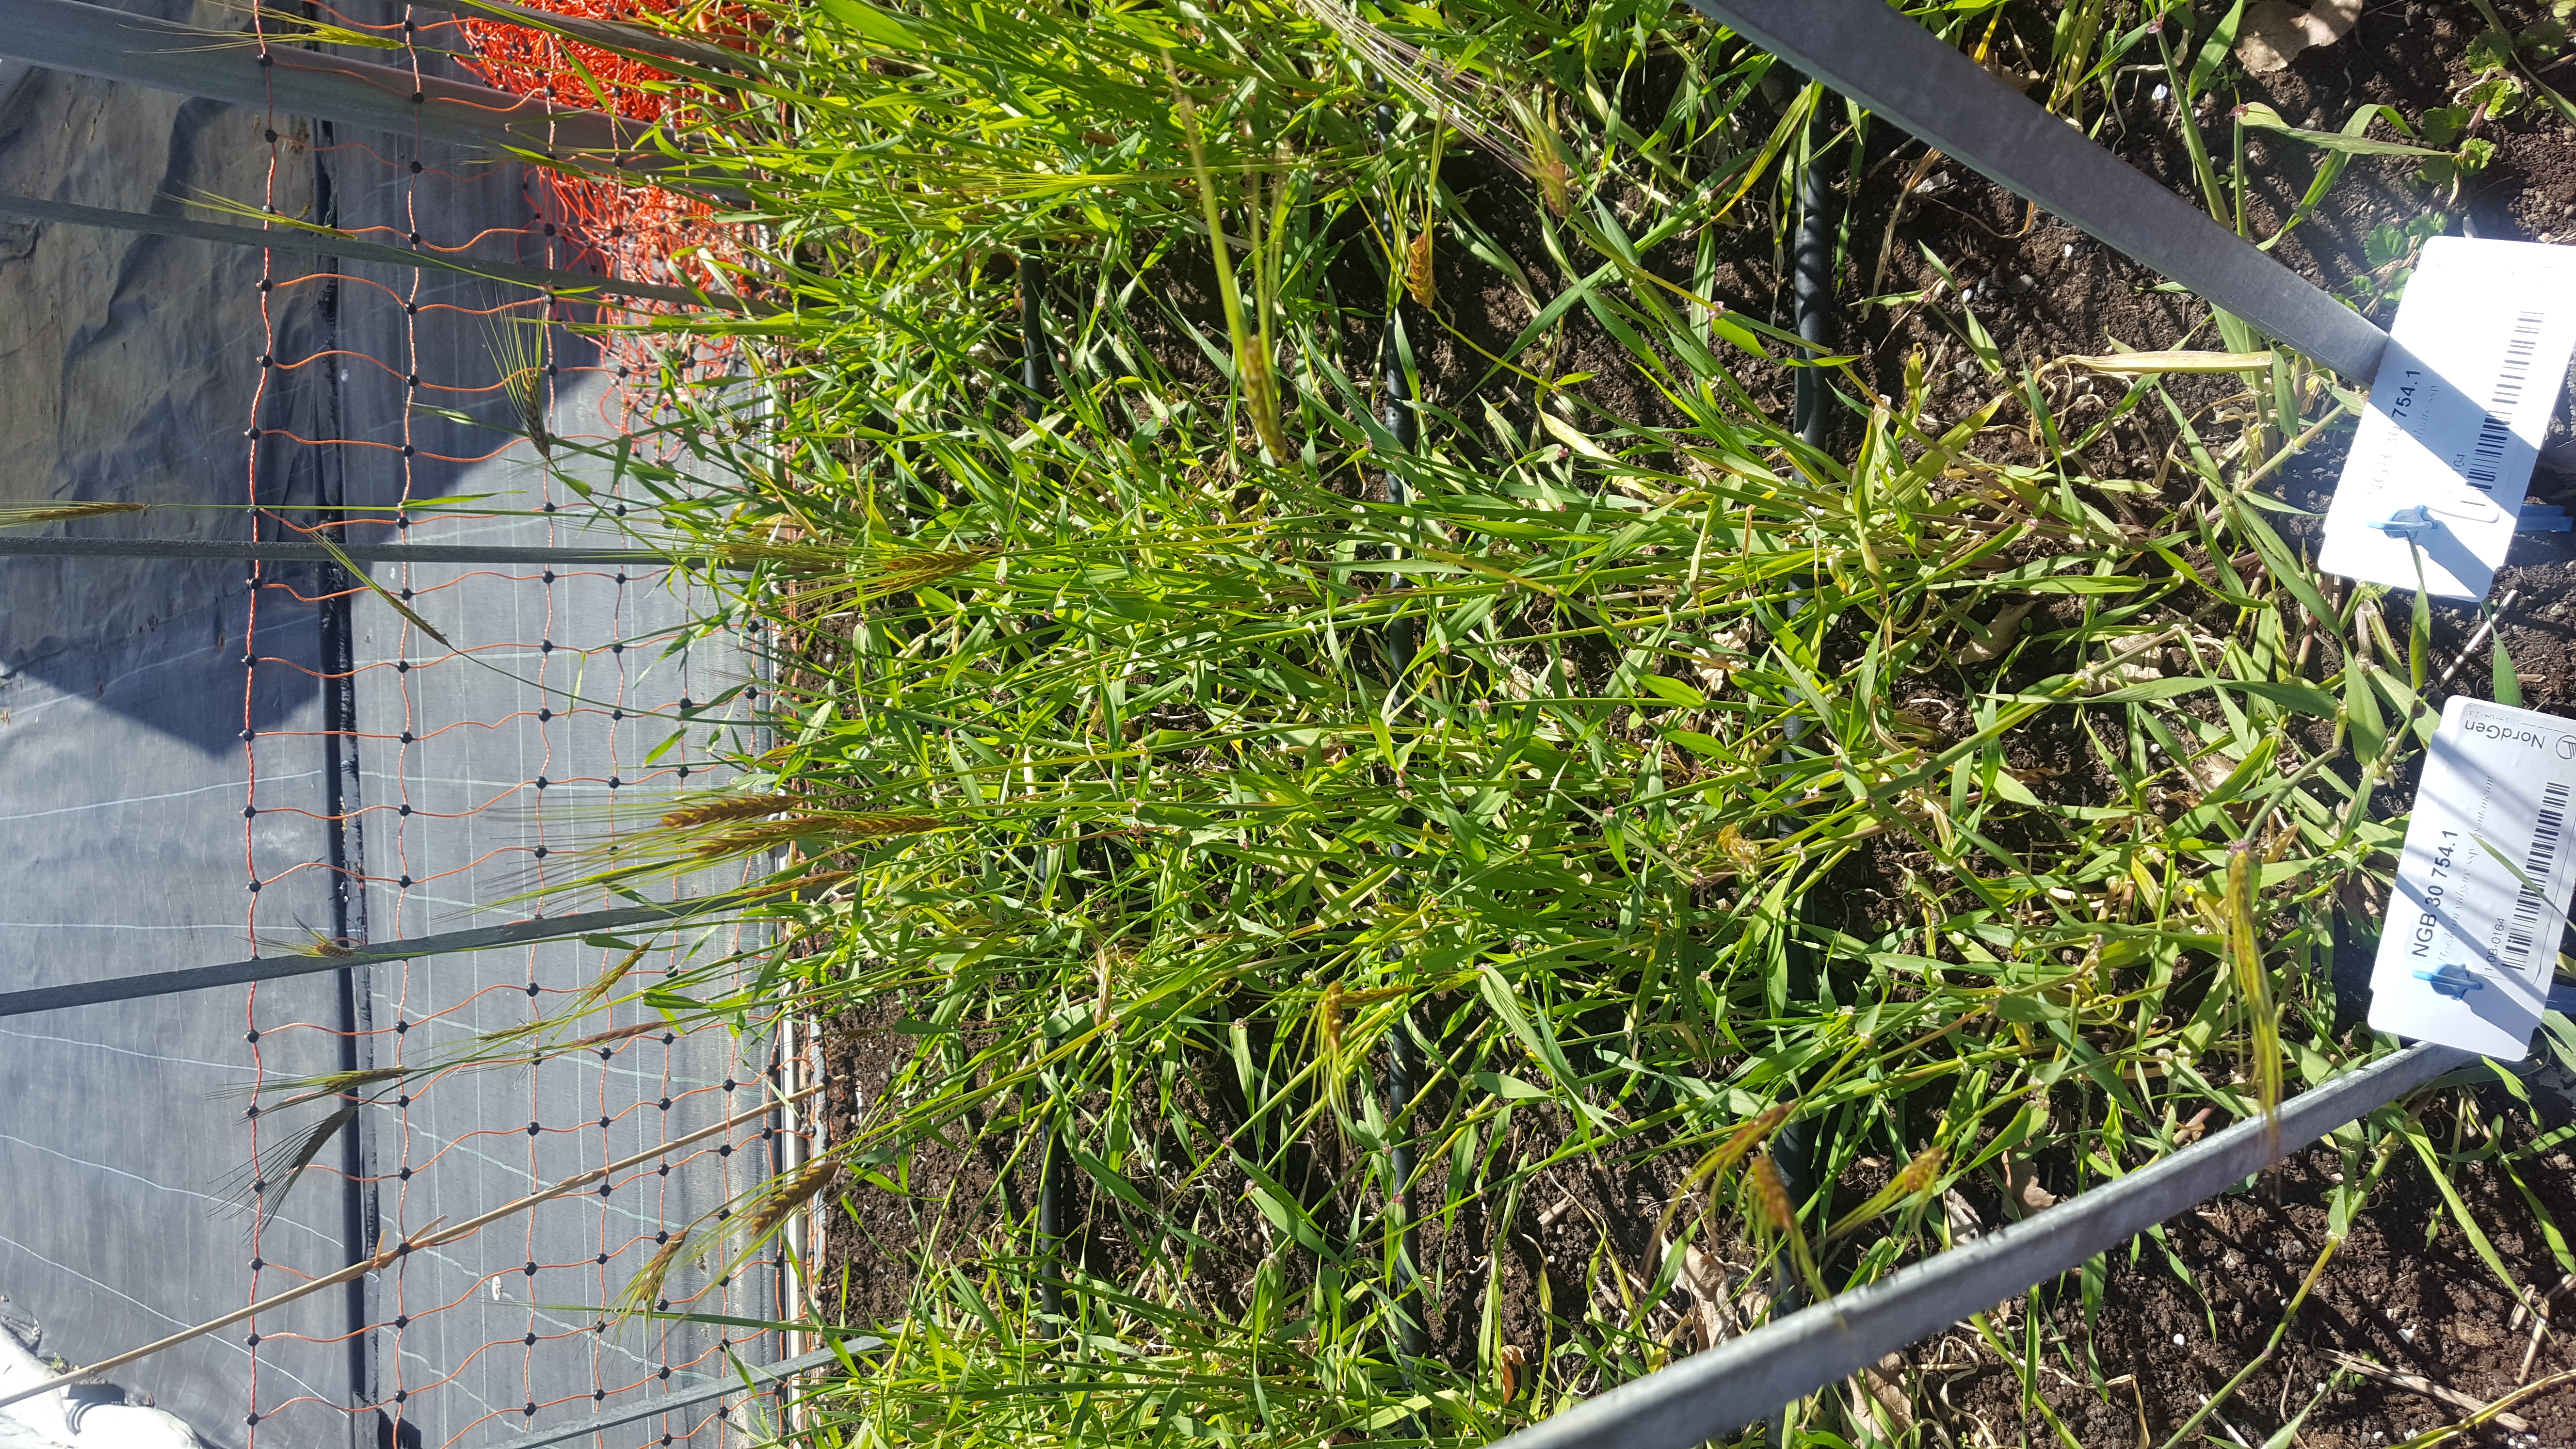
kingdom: Plantae
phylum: Tracheophyta
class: Liliopsida
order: Poales
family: Poaceae
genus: Hordeum
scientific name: Hordeum spontaneum
